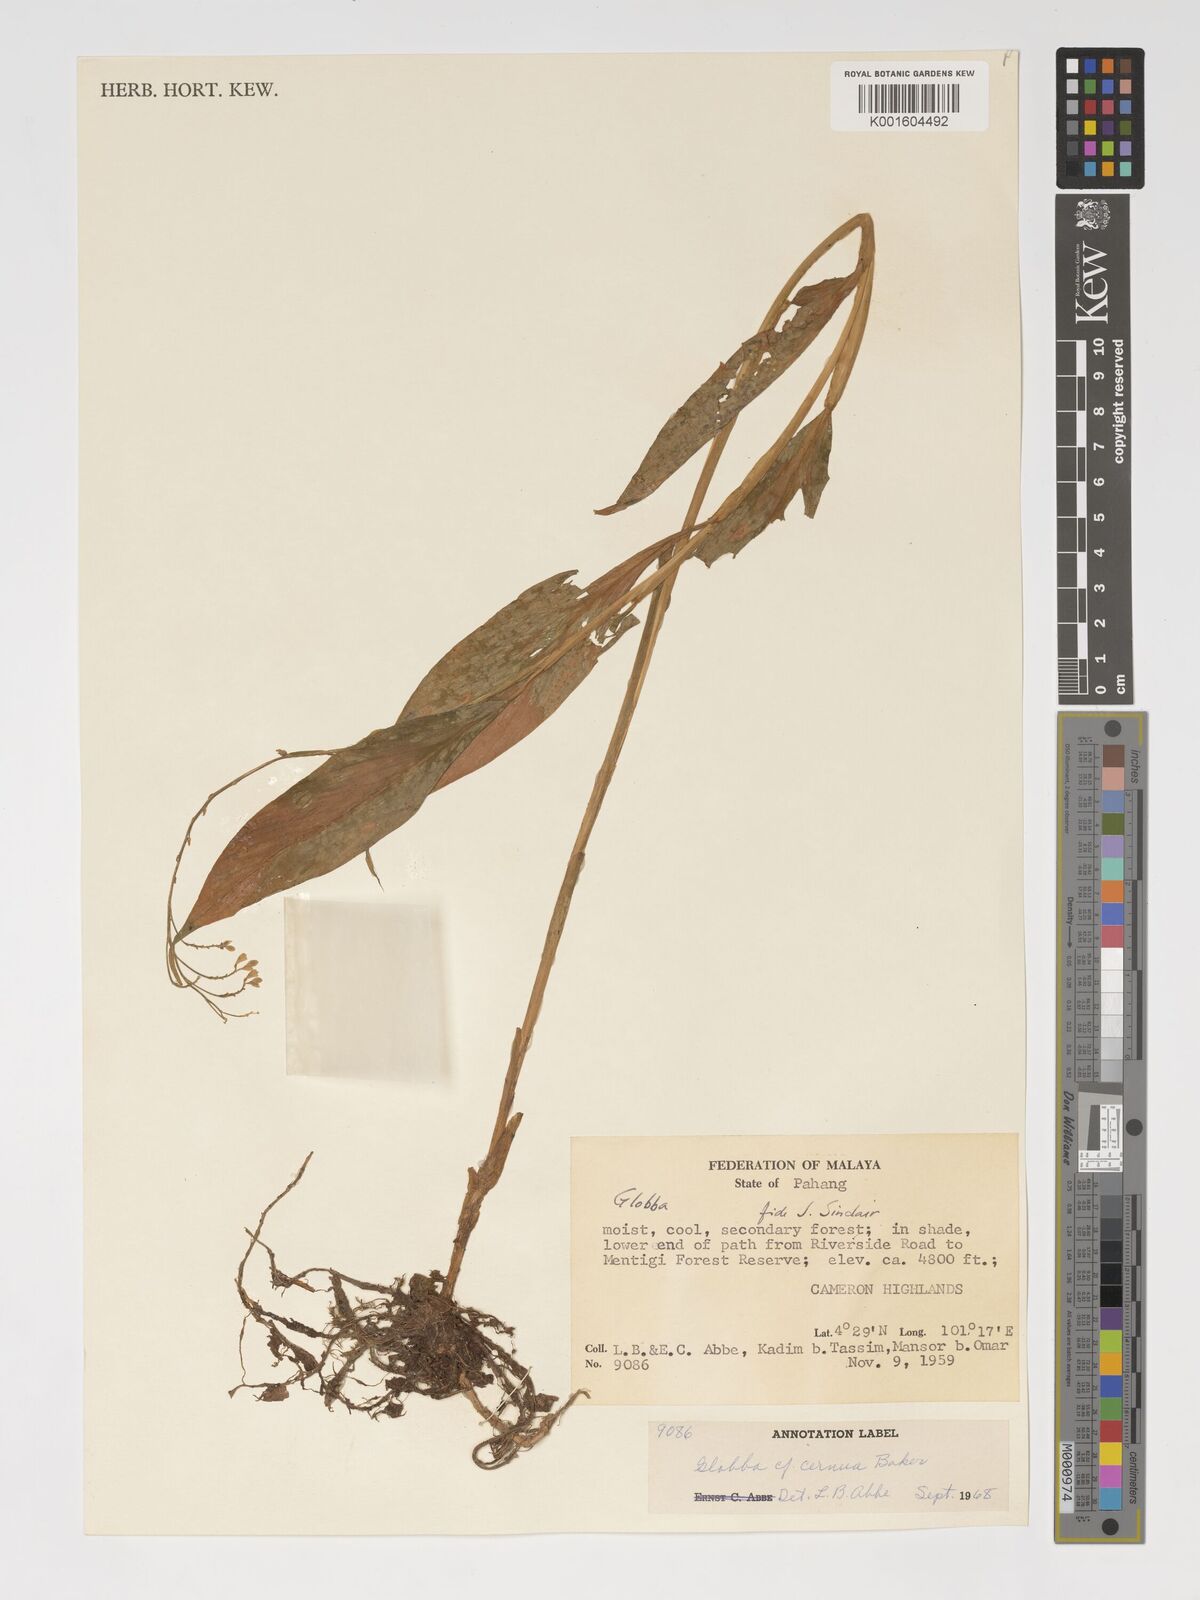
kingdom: Plantae
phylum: Tracheophyta
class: Liliopsida
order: Zingiberales
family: Zingiberaceae
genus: Globba
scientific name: Globba cernua
